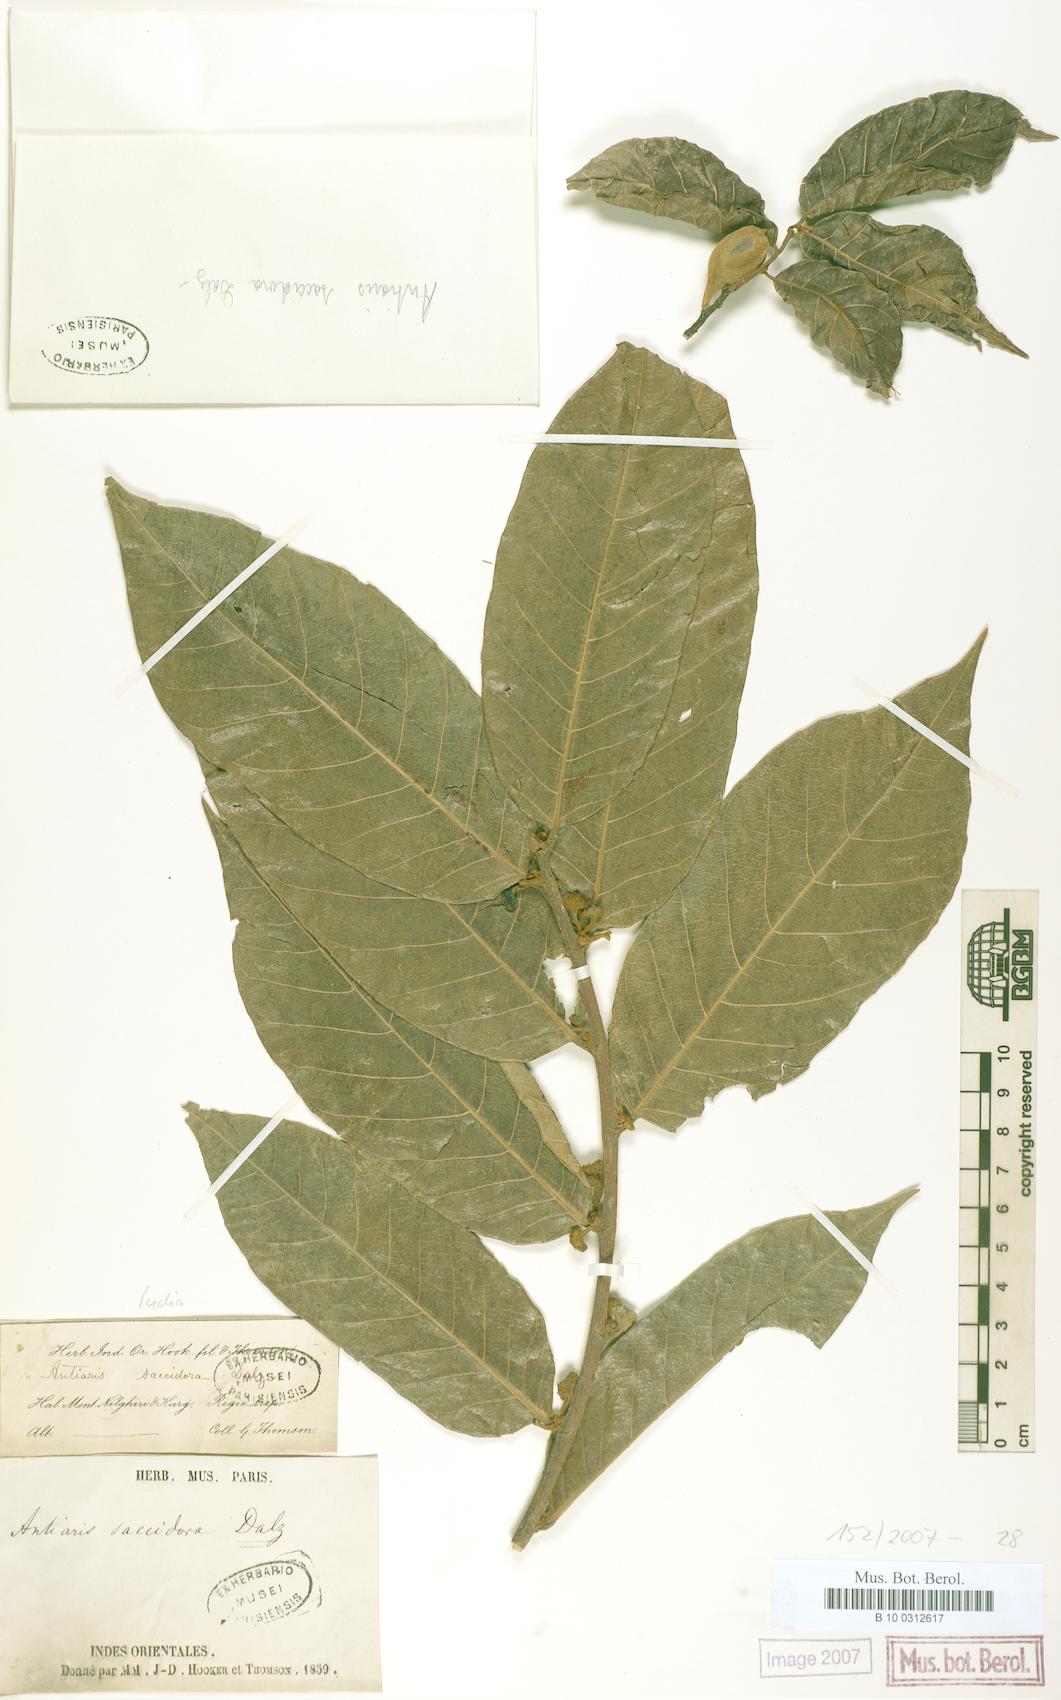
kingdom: Plantae
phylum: Tracheophyta
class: Magnoliopsida
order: Rosales
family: Moraceae
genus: Antiaris
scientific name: Antiaris toxicaria
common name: Sackingtree
